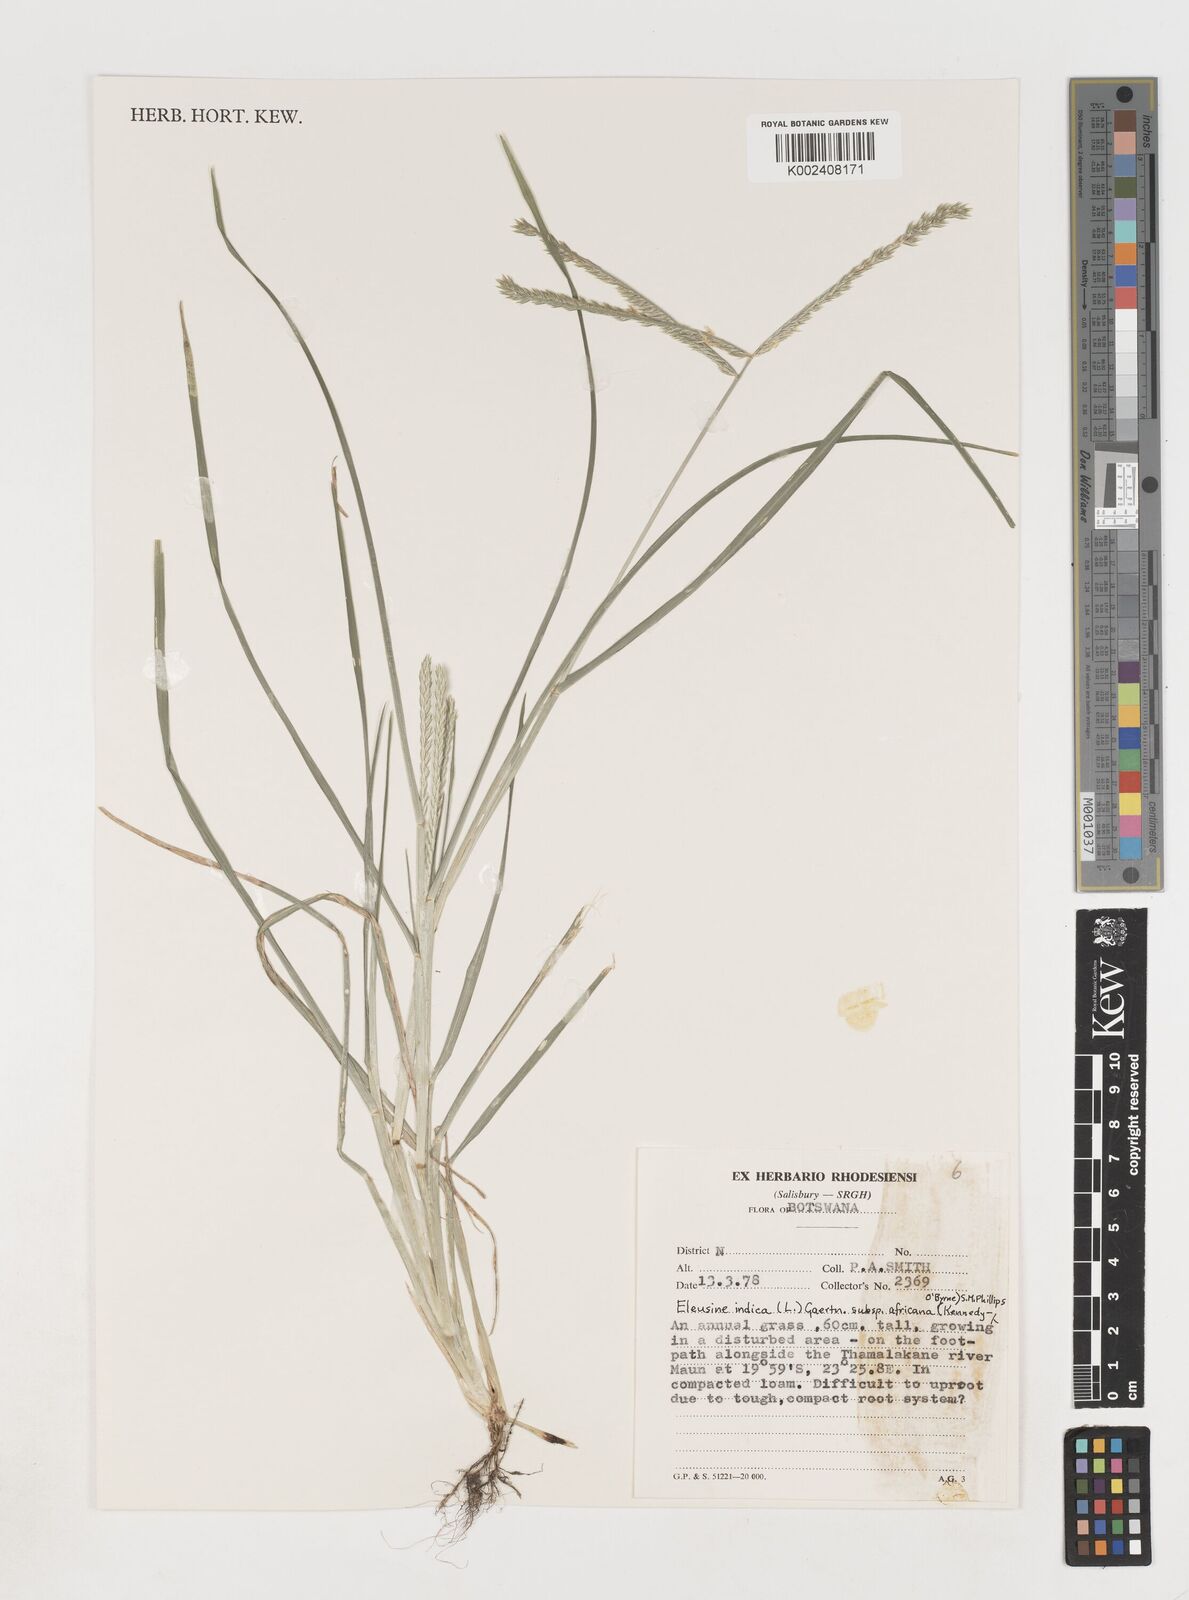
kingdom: Plantae
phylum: Tracheophyta
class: Liliopsida
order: Poales
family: Poaceae
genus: Eleusine
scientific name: Eleusine africana
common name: Wild african finger millet
